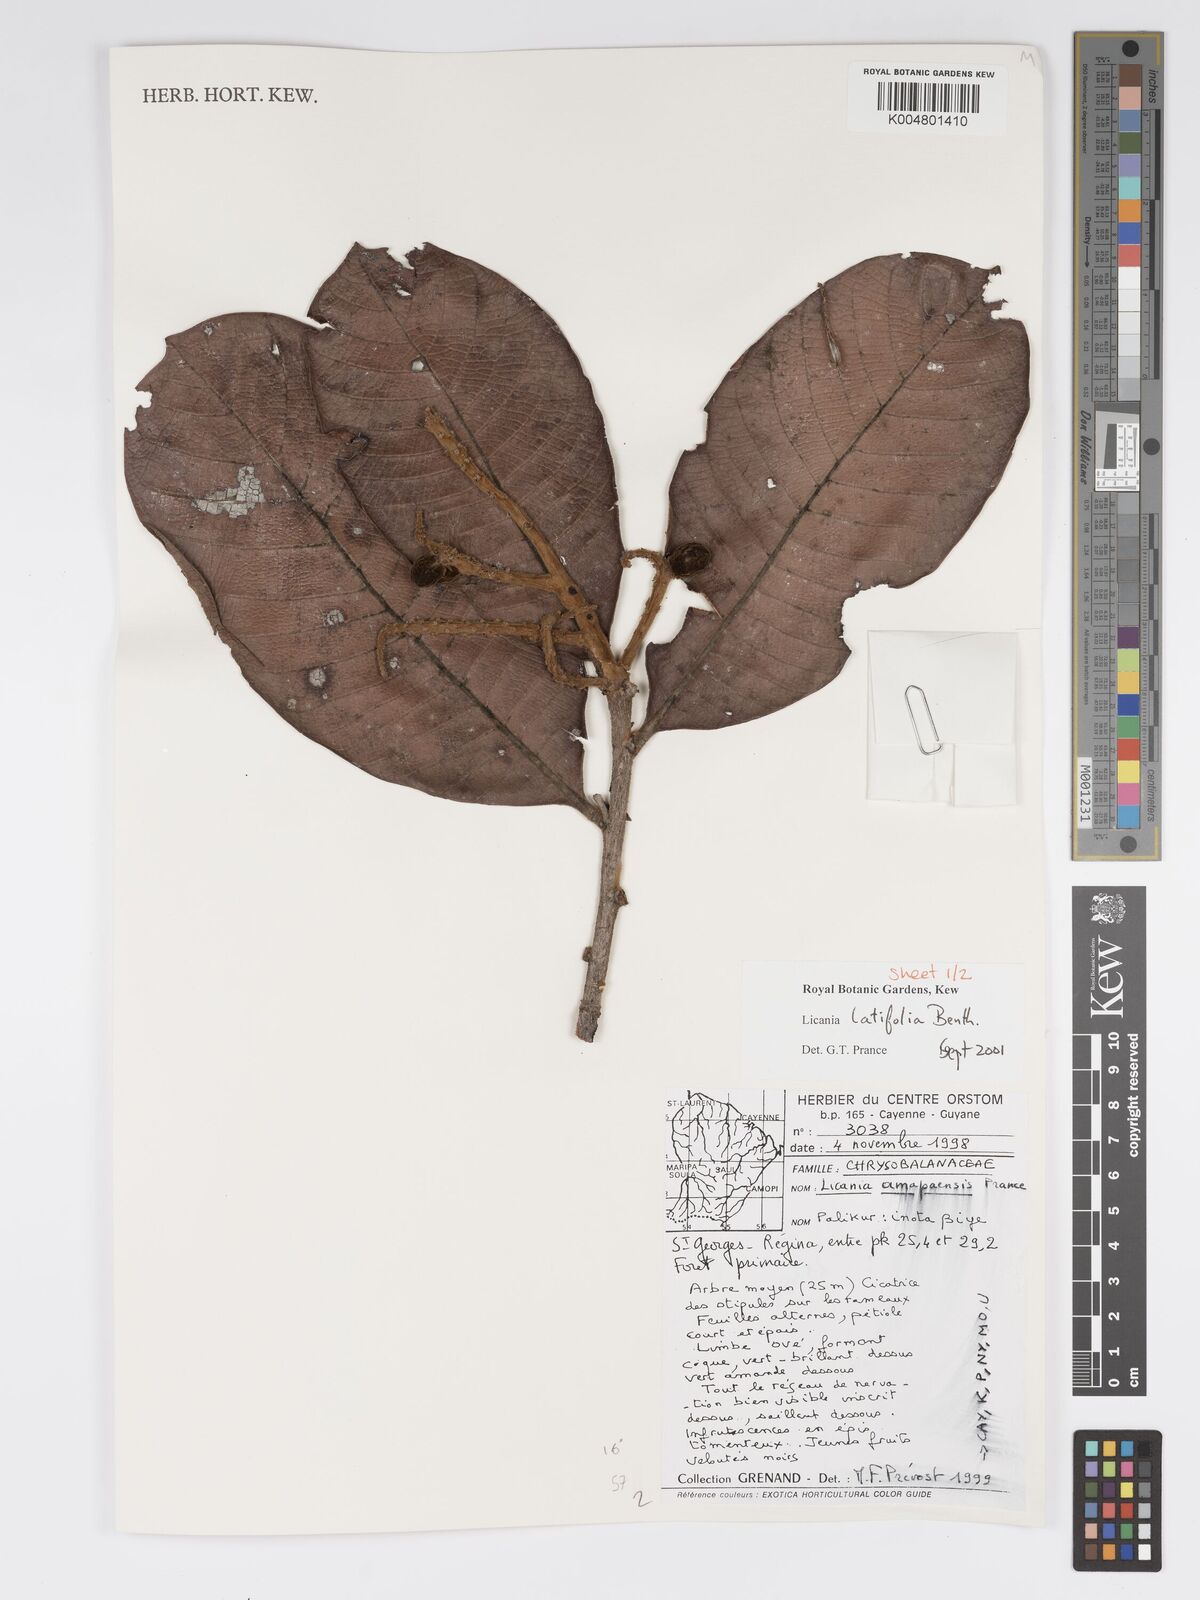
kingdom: Plantae
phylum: Tracheophyta
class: Magnoliopsida
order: Malpighiales
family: Chrysobalanaceae
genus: Hymenopus
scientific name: Hymenopus latifolius
